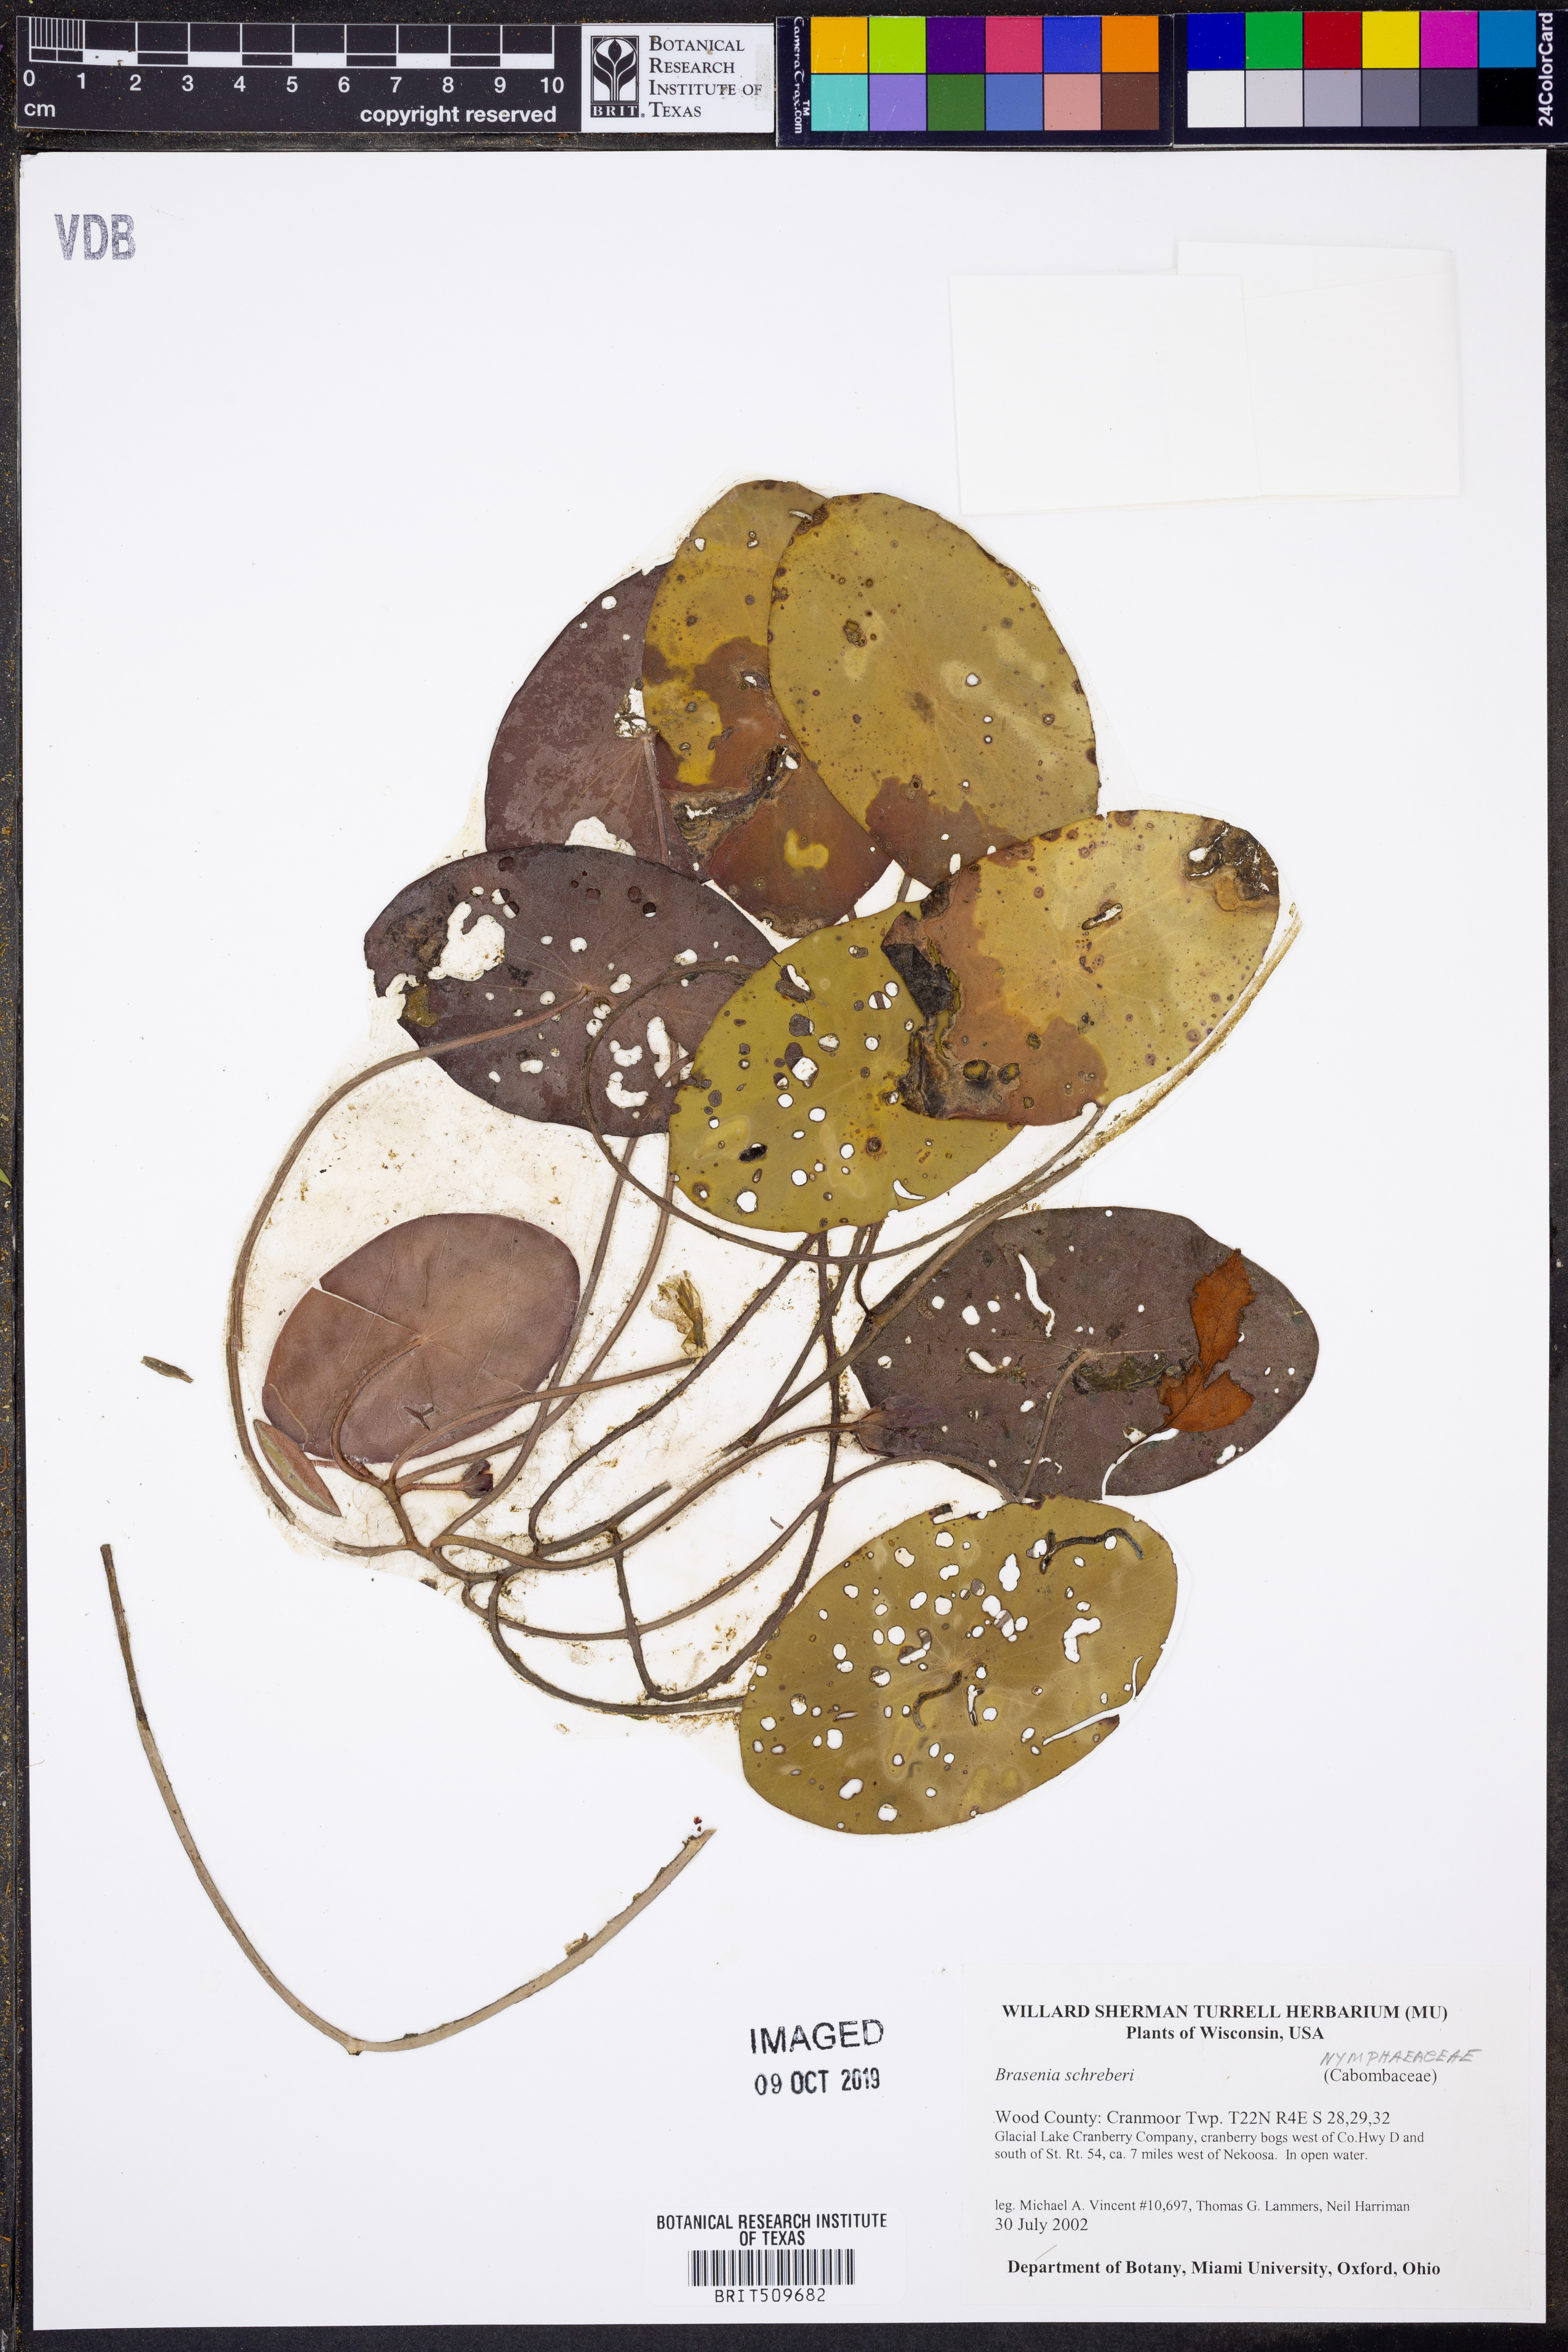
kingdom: Plantae
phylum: Tracheophyta
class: Magnoliopsida
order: Nymphaeales
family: Cabombaceae
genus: Brasenia
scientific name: Brasenia schreberi
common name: Water-shield
